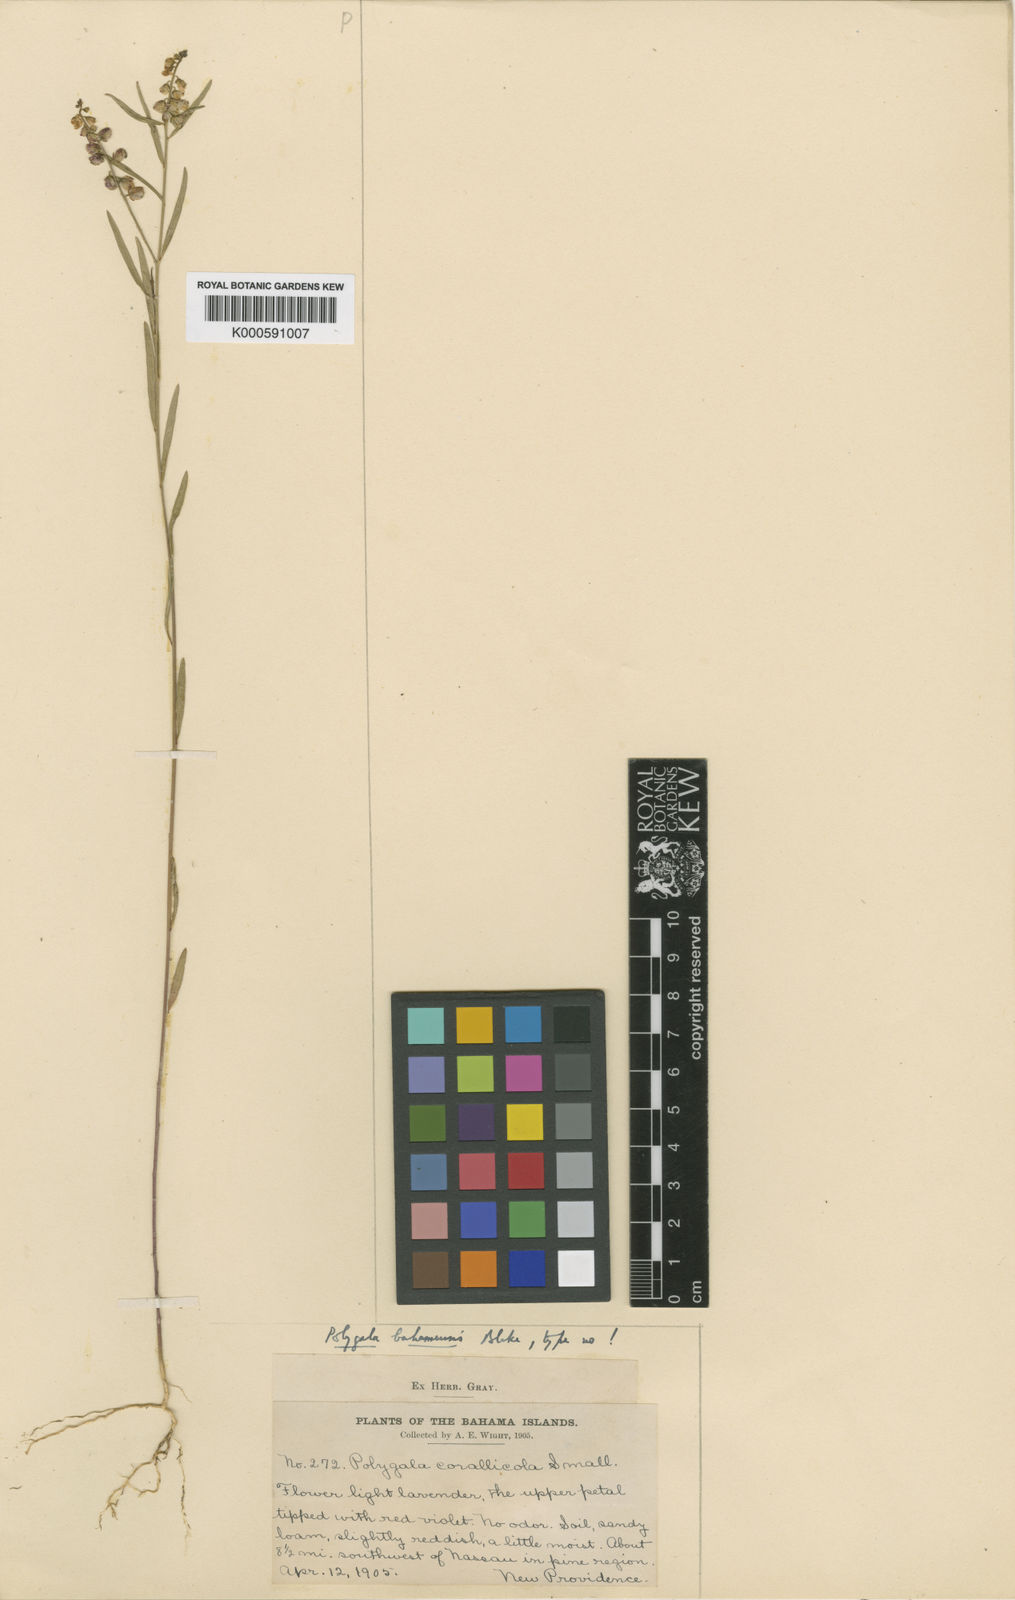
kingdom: Plantae
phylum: Tracheophyta
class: Magnoliopsida
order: Fabales
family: Polygalaceae
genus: Asemeia
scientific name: Asemeia violacea
